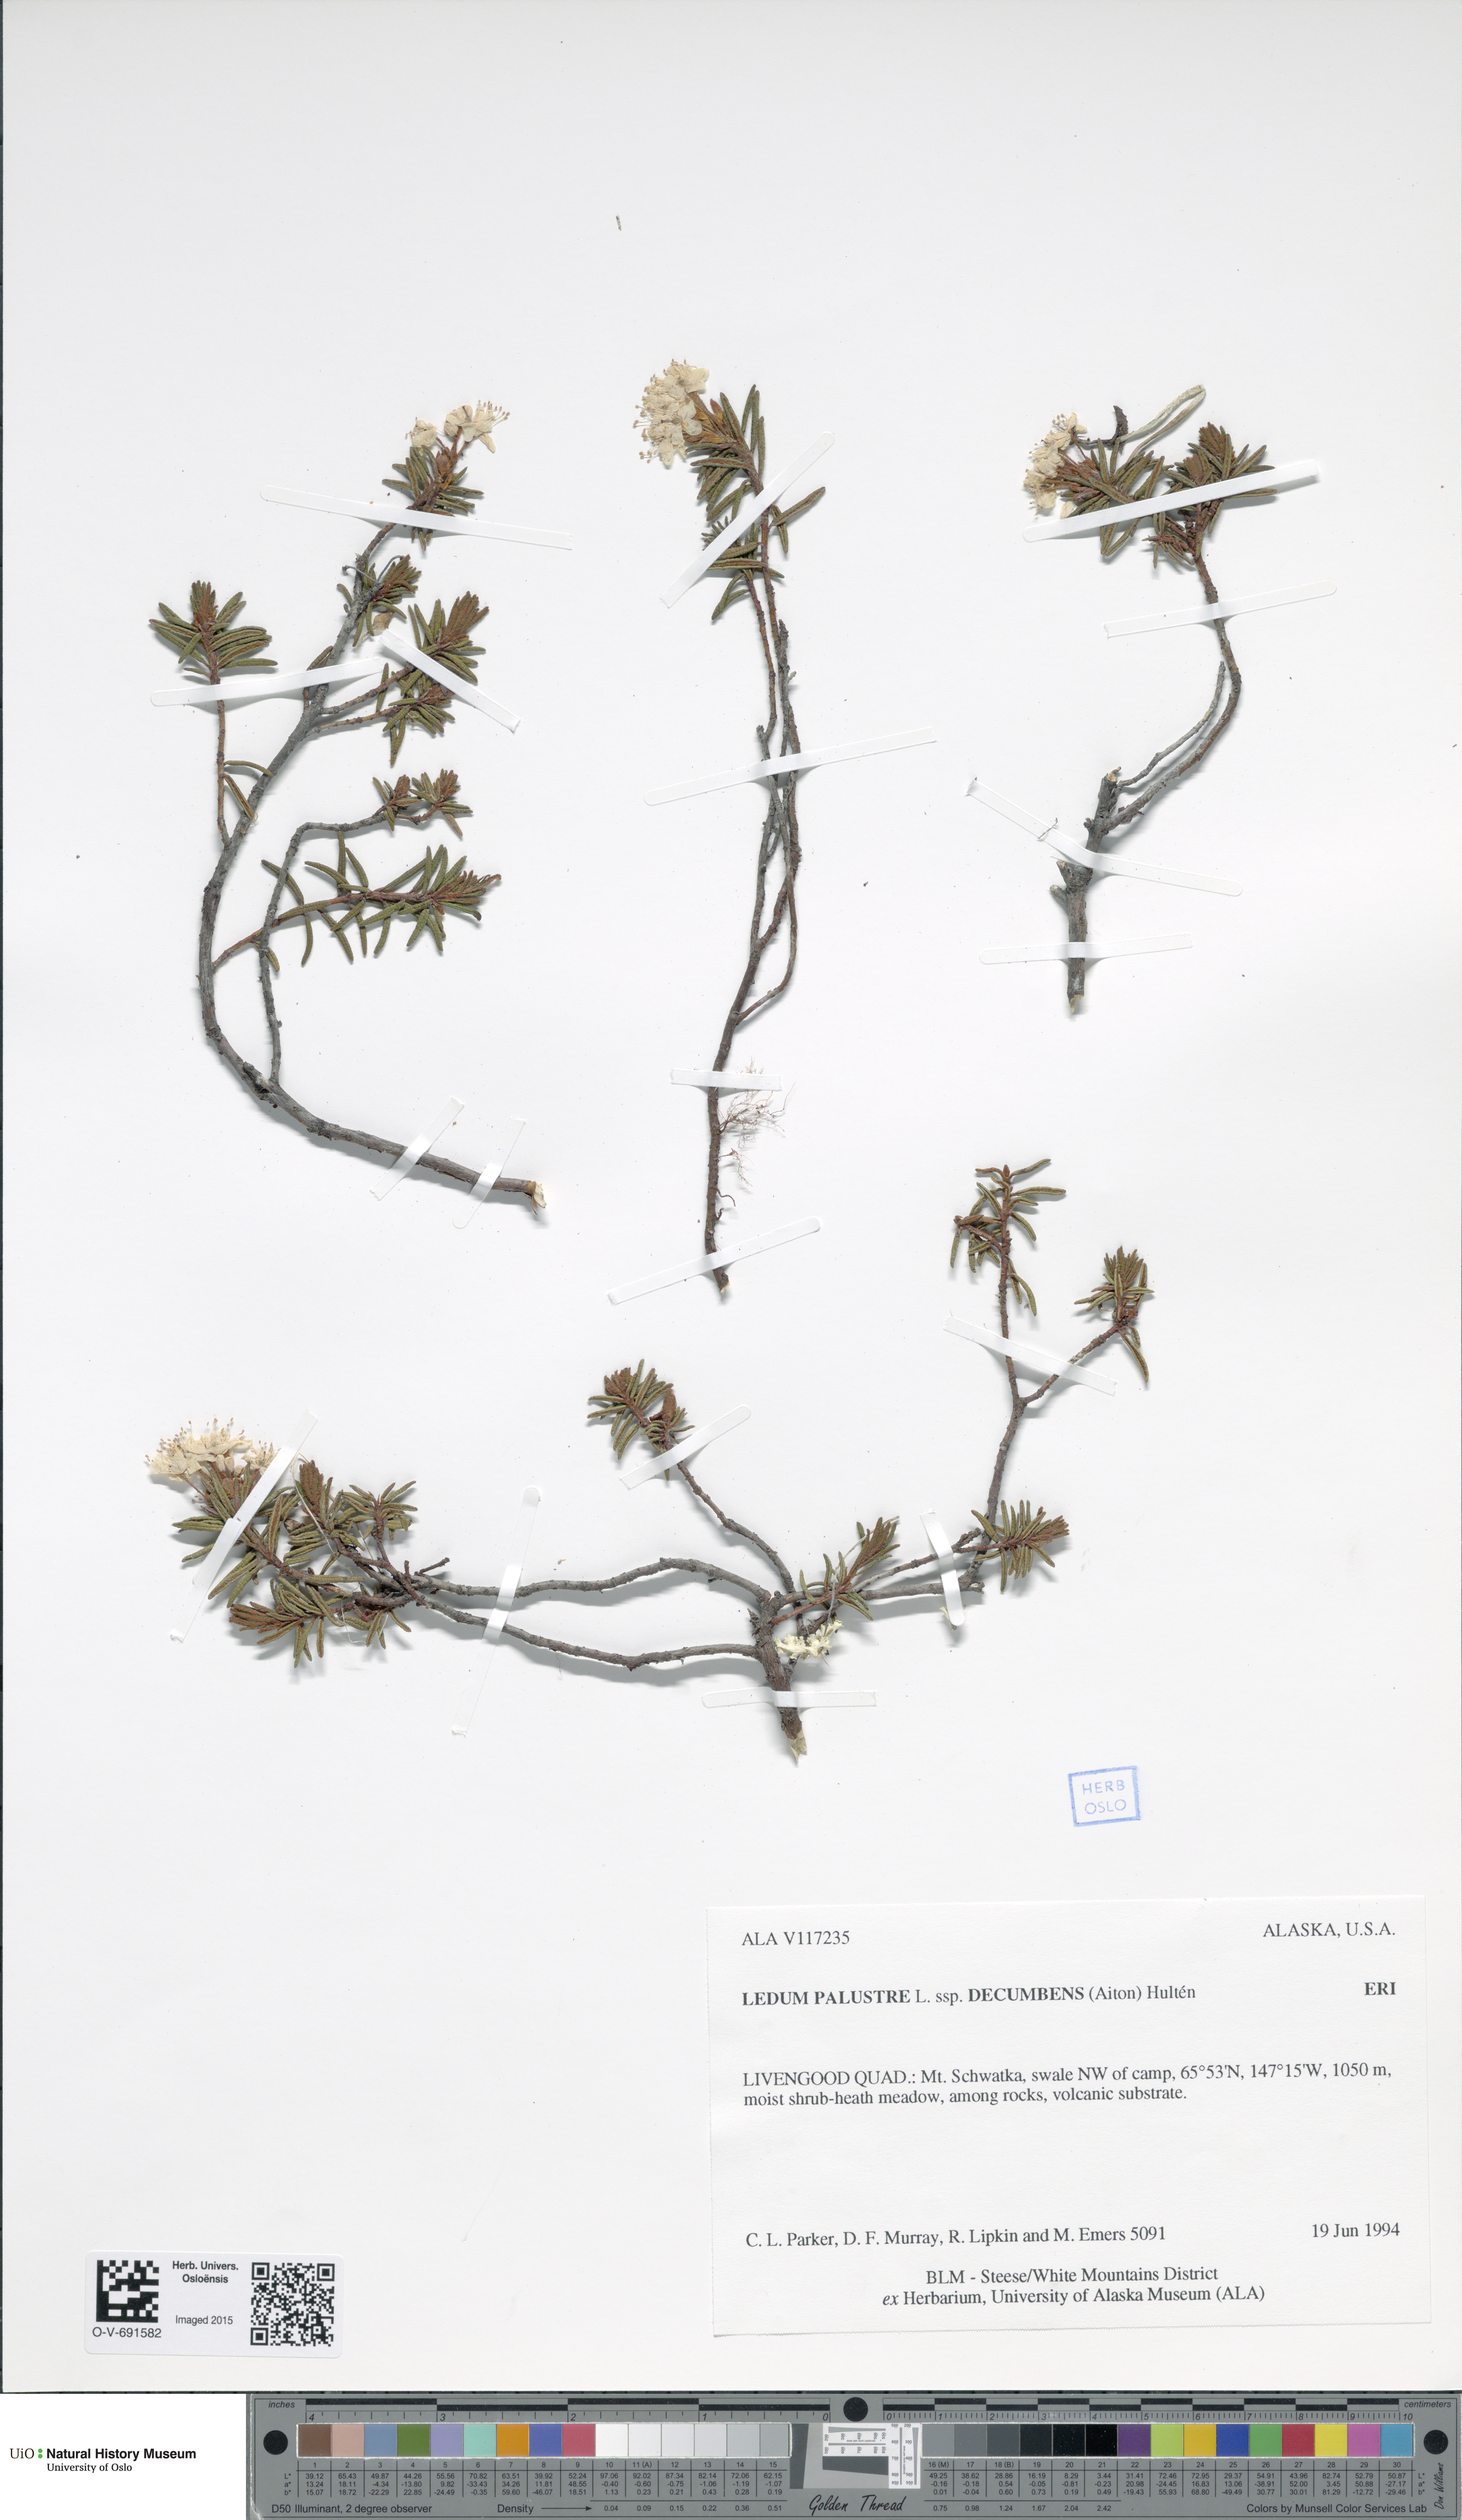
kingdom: Plantae
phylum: Tracheophyta
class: Magnoliopsida
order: Ericales
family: Ericaceae
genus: Rhododendron
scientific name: Rhododendron tomentosum
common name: Marsh labrador tea
